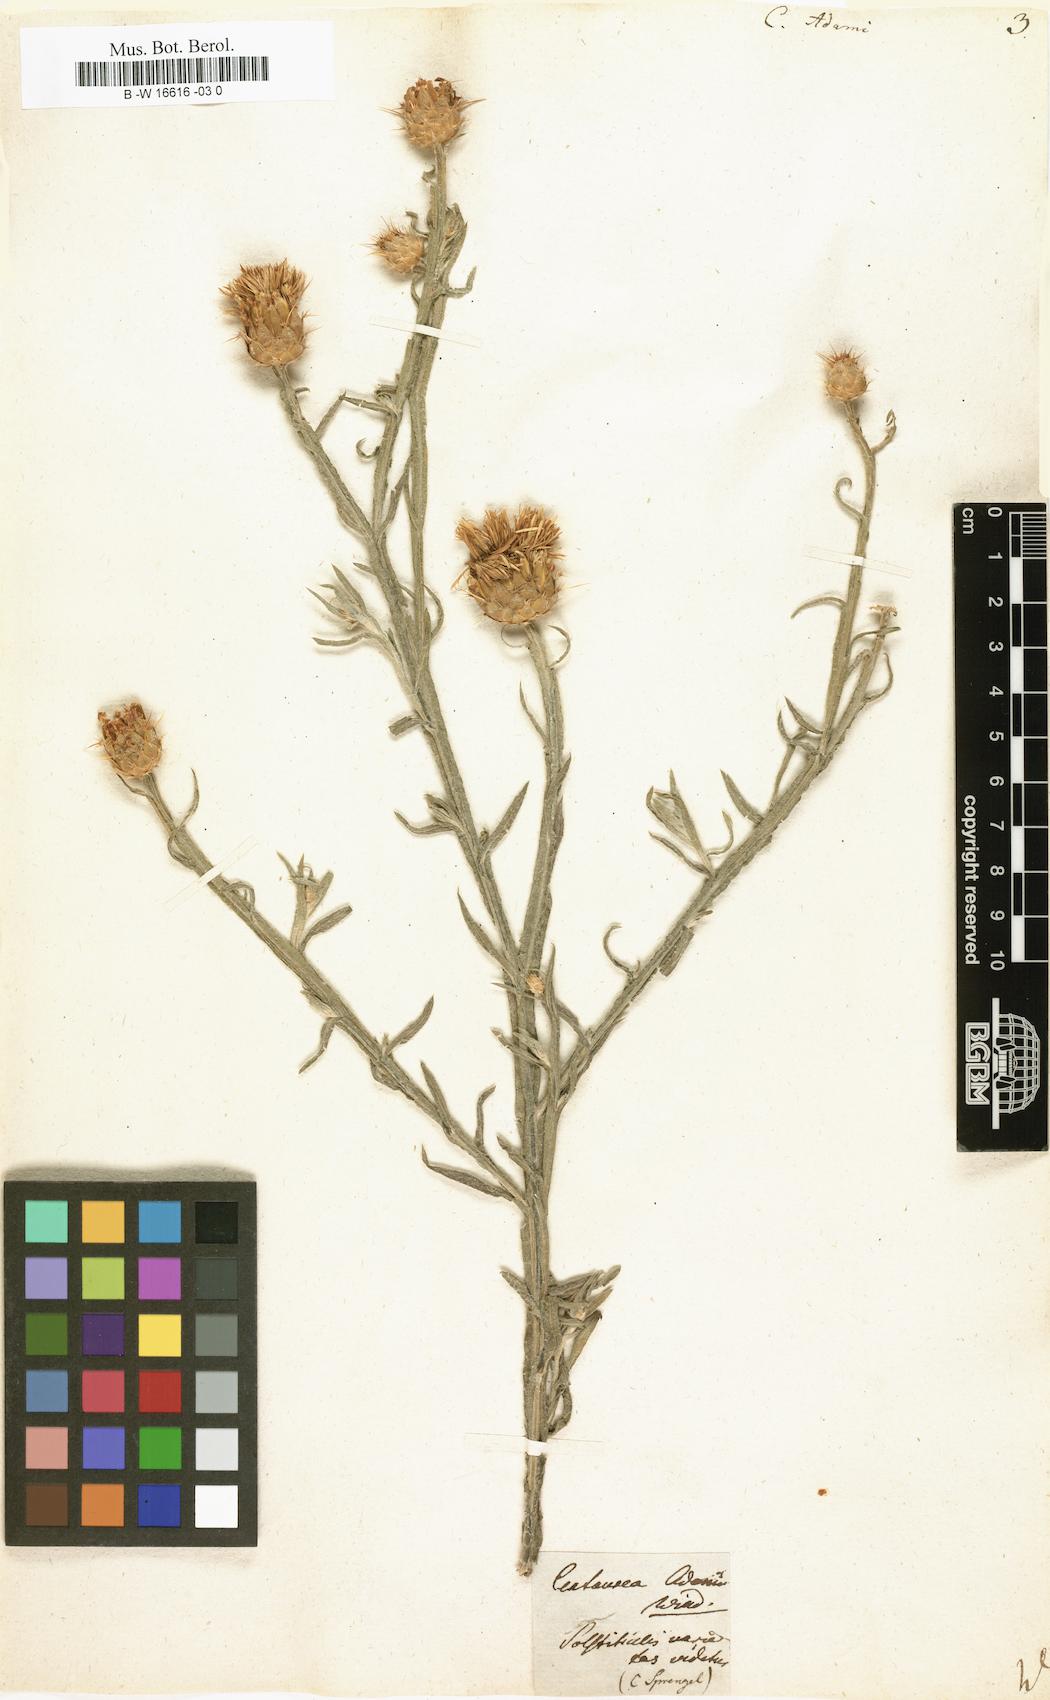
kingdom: Plantae
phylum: Tracheophyta
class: Magnoliopsida
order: Asterales
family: Asteraceae
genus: Centaurea
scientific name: Centaurea adami
